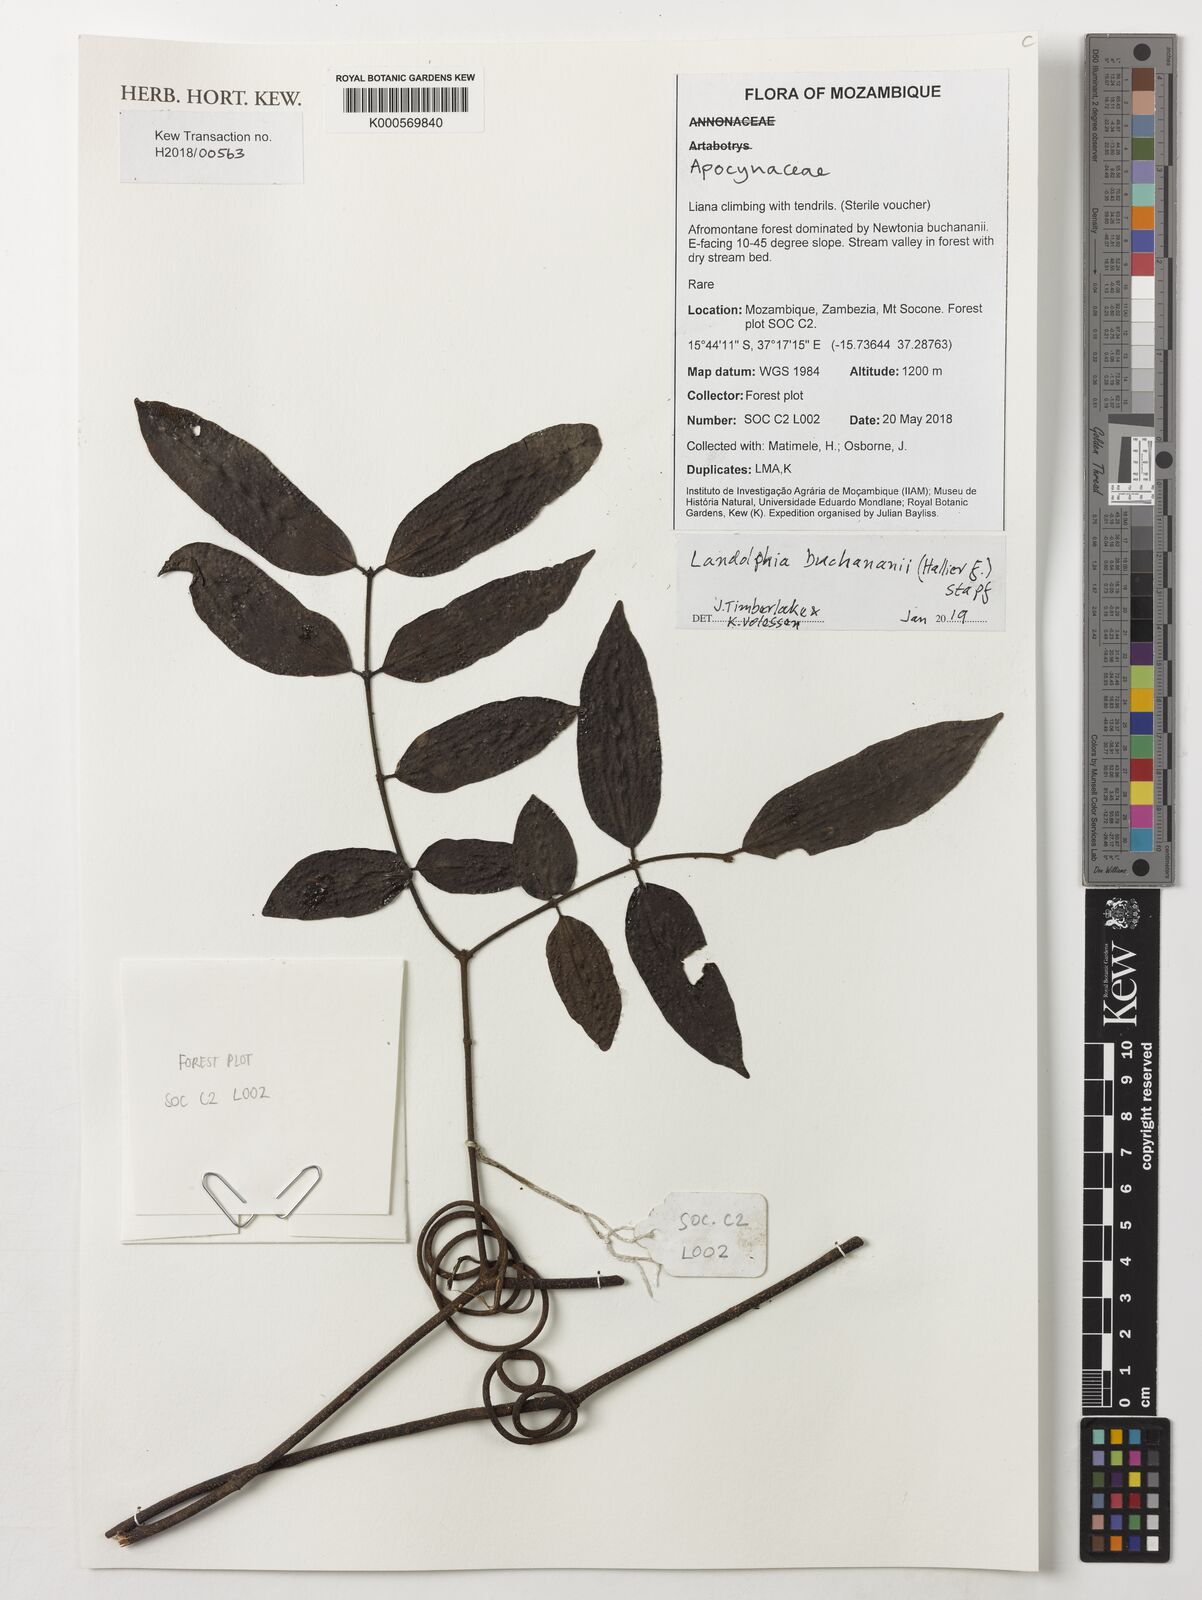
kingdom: Plantae
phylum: Tracheophyta
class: Magnoliopsida
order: Gentianales
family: Apocynaceae
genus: Landolphia
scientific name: Landolphia buchananii
